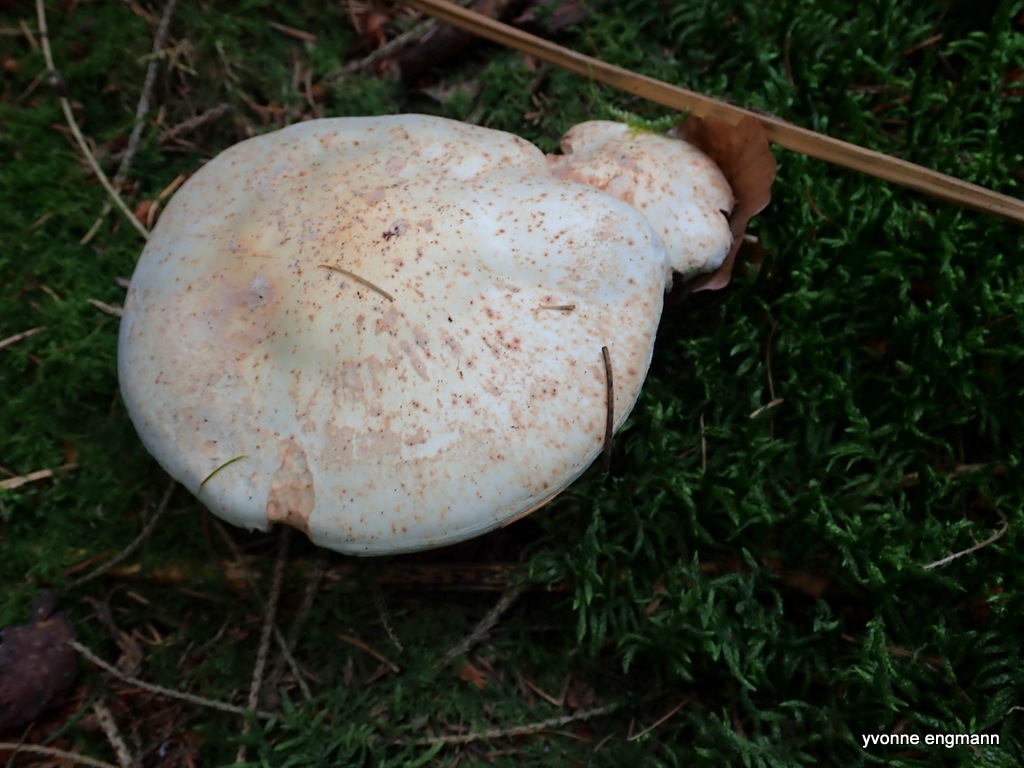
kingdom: Fungi
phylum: Basidiomycota
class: Agaricomycetes
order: Agaricales
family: Omphalotaceae
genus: Rhodocollybia
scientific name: Rhodocollybia maculata
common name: plettet fladhat
